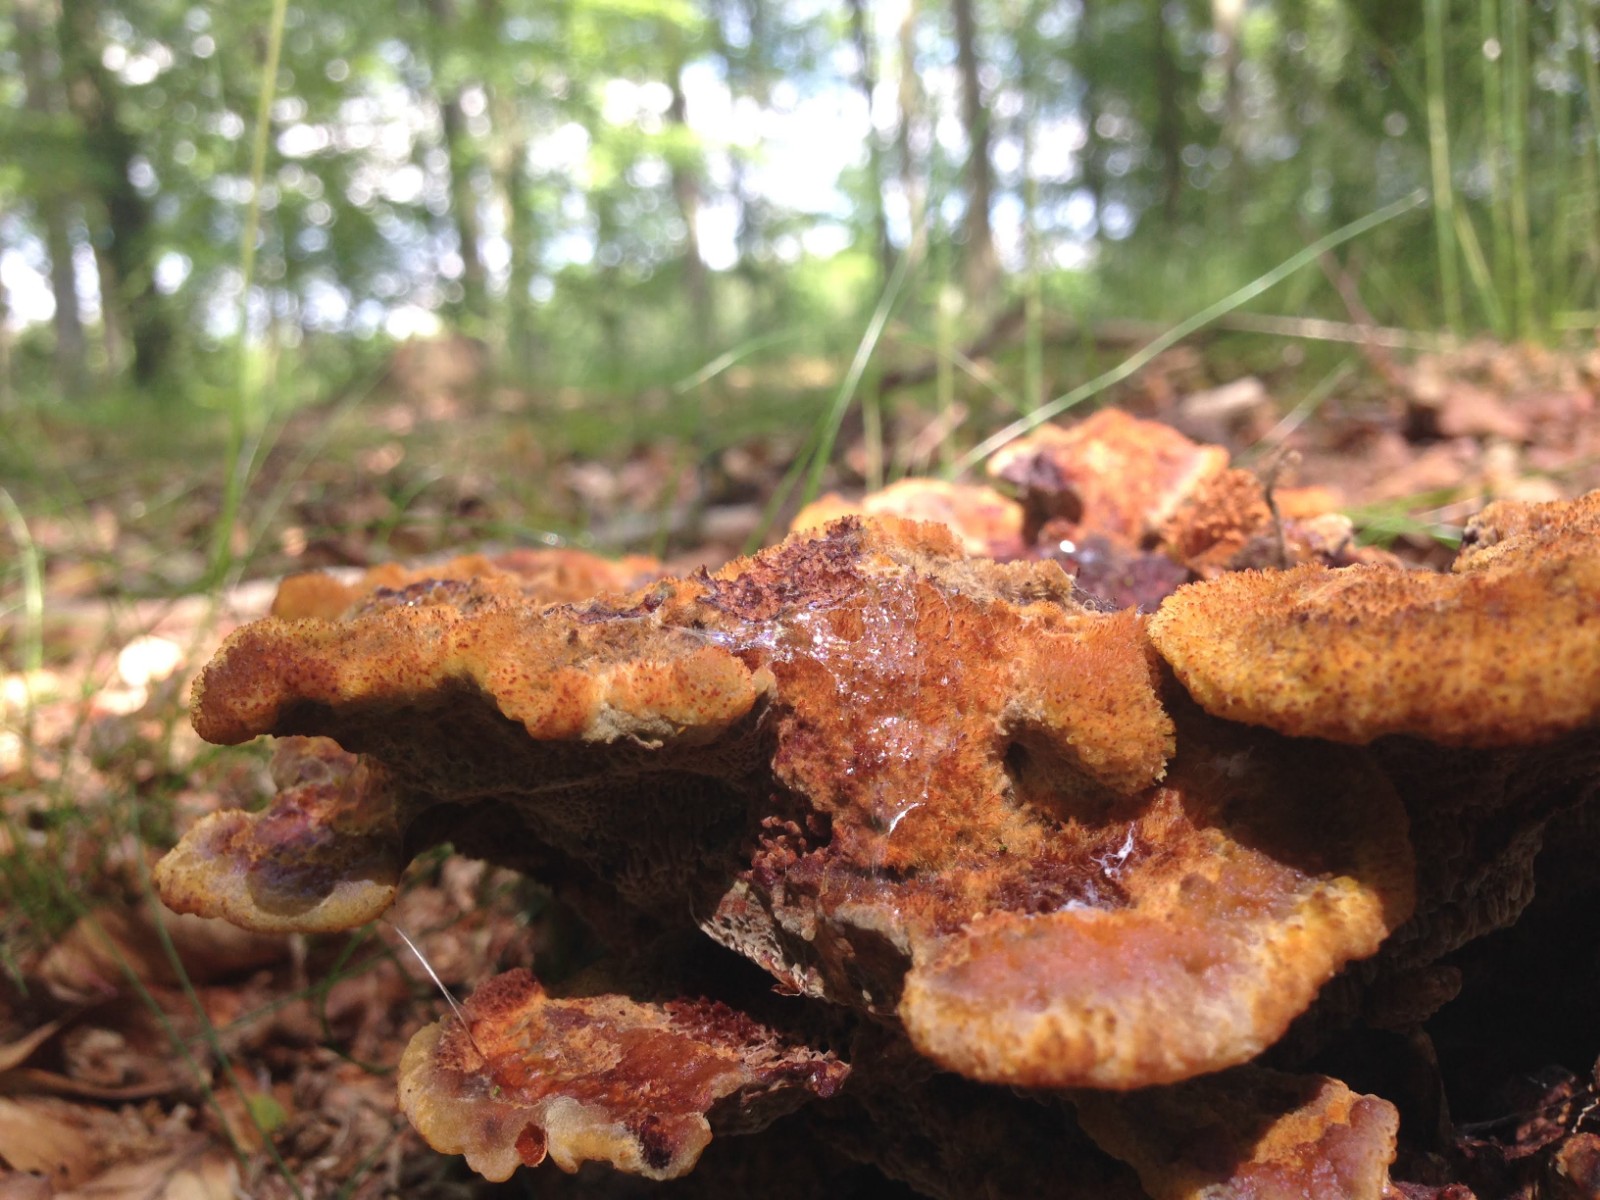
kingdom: Fungi
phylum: Basidiomycota
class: Agaricomycetes
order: Polyporales
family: Laetiporaceae
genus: Phaeolus
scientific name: Phaeolus schweinitzii
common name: brunporesvamp
